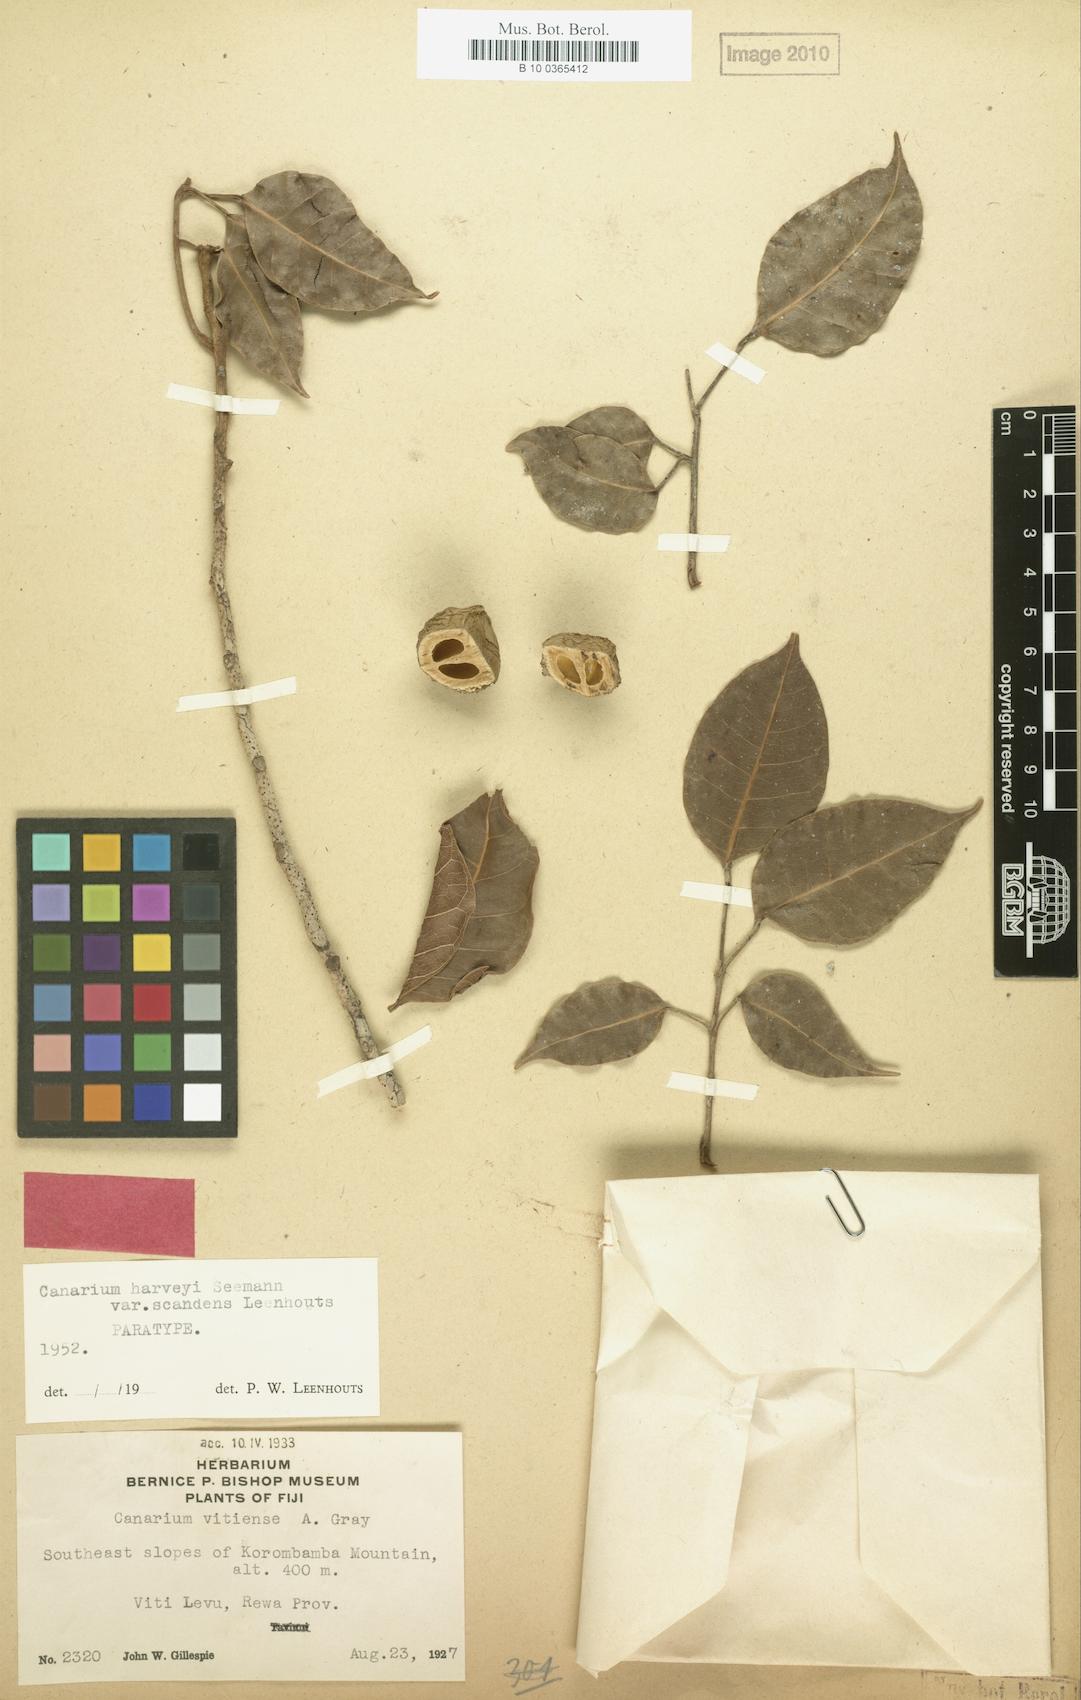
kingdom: Plantae
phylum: Tracheophyta
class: Magnoliopsida
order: Sapindales
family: Burseraceae
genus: Canarium
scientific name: Canarium harveyi
